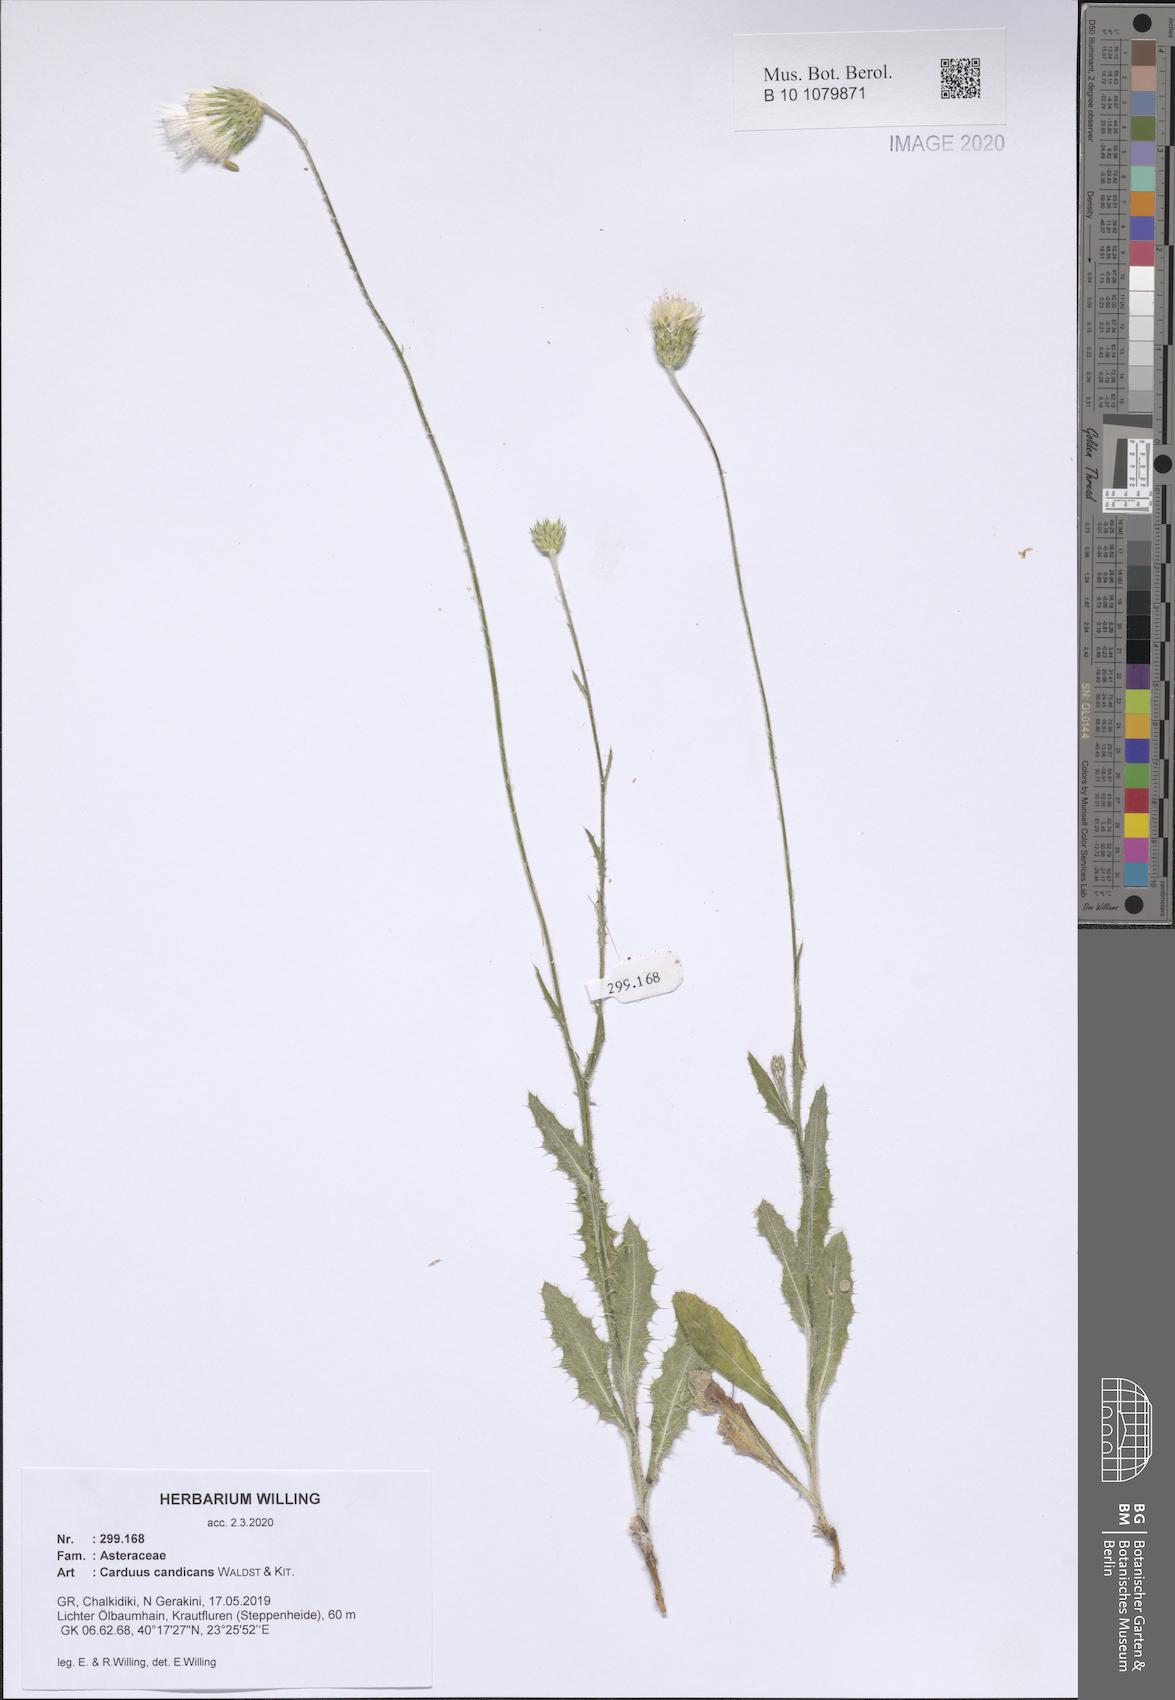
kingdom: Plantae
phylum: Tracheophyta
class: Magnoliopsida
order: Asterales
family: Asteraceae
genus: Carduus
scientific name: Carduus candicans
